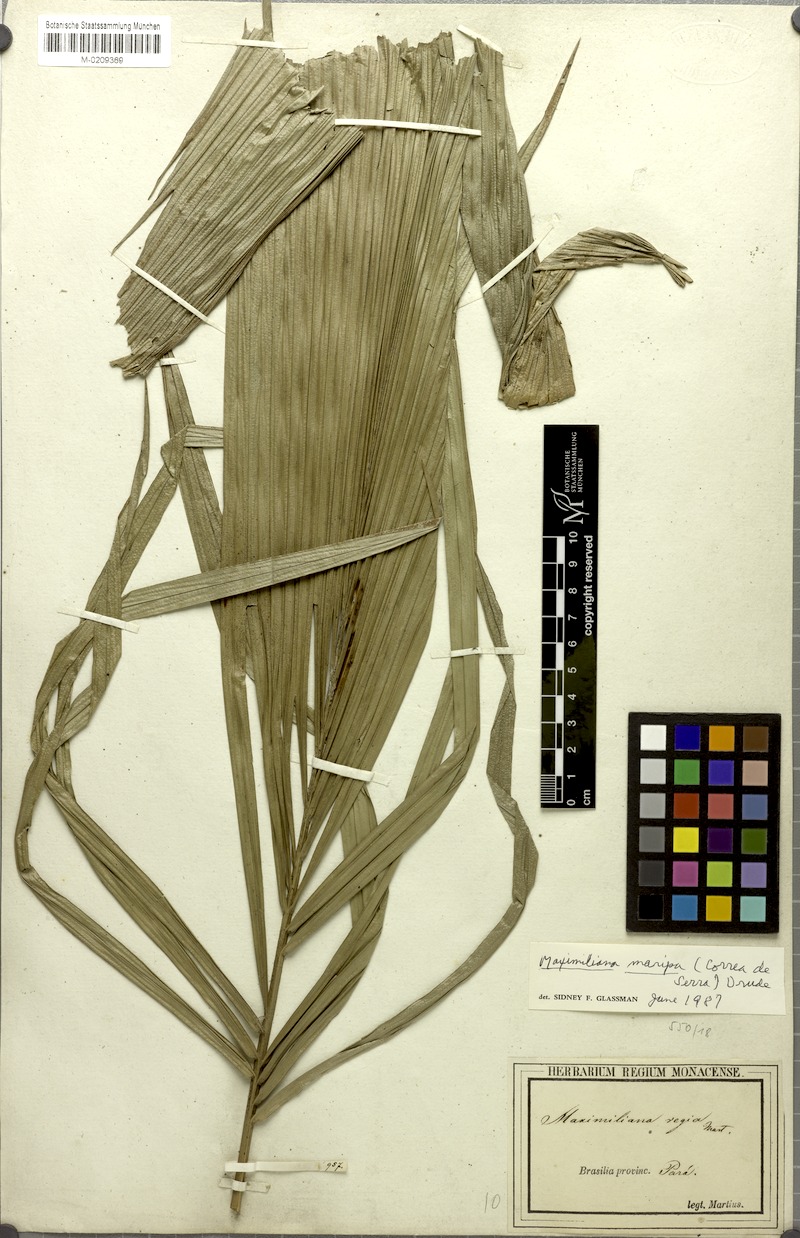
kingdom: Plantae
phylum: Tracheophyta
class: Liliopsida
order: Arecales
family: Arecaceae
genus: Attalea
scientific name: Attalea maripa
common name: Maripa palm
